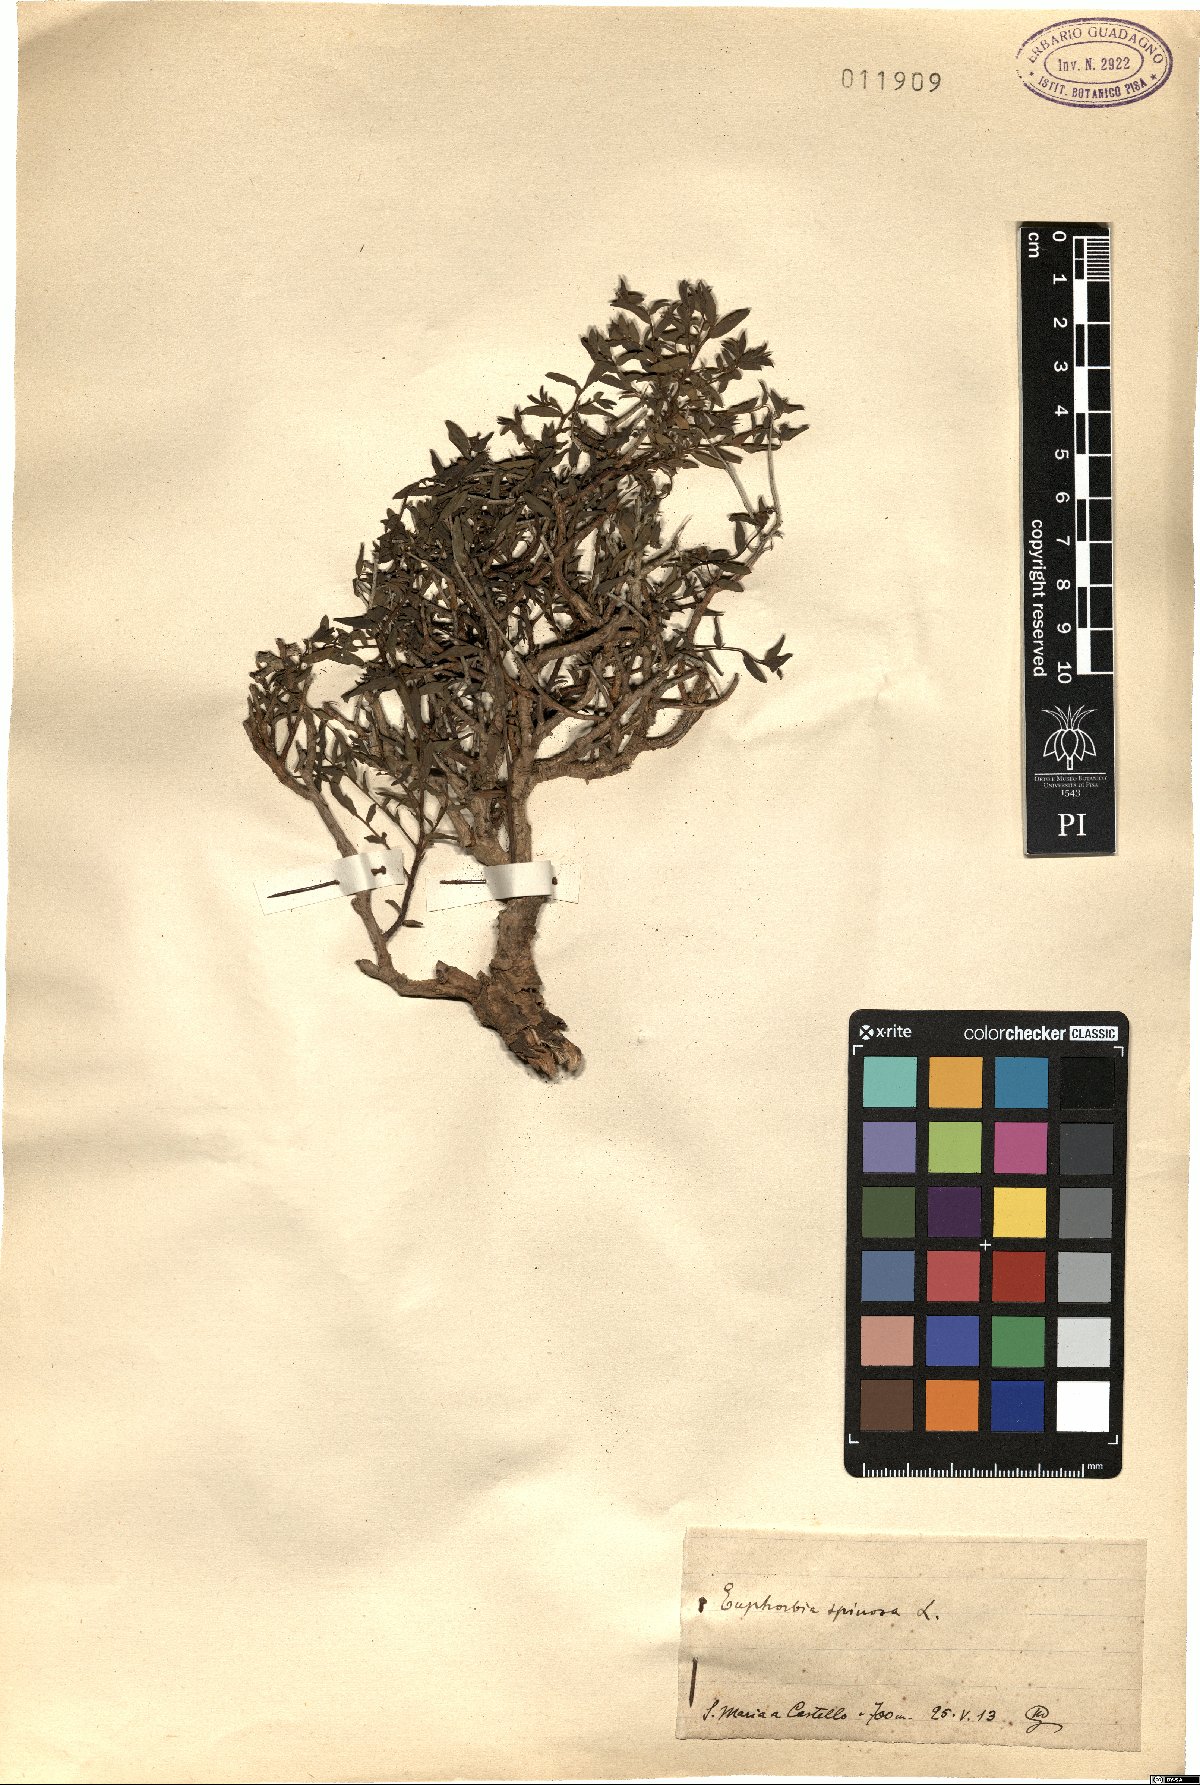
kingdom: Plantae
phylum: Tracheophyta
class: Magnoliopsida
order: Malpighiales
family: Euphorbiaceae
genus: Euphorbia
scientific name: Euphorbia spinosa
